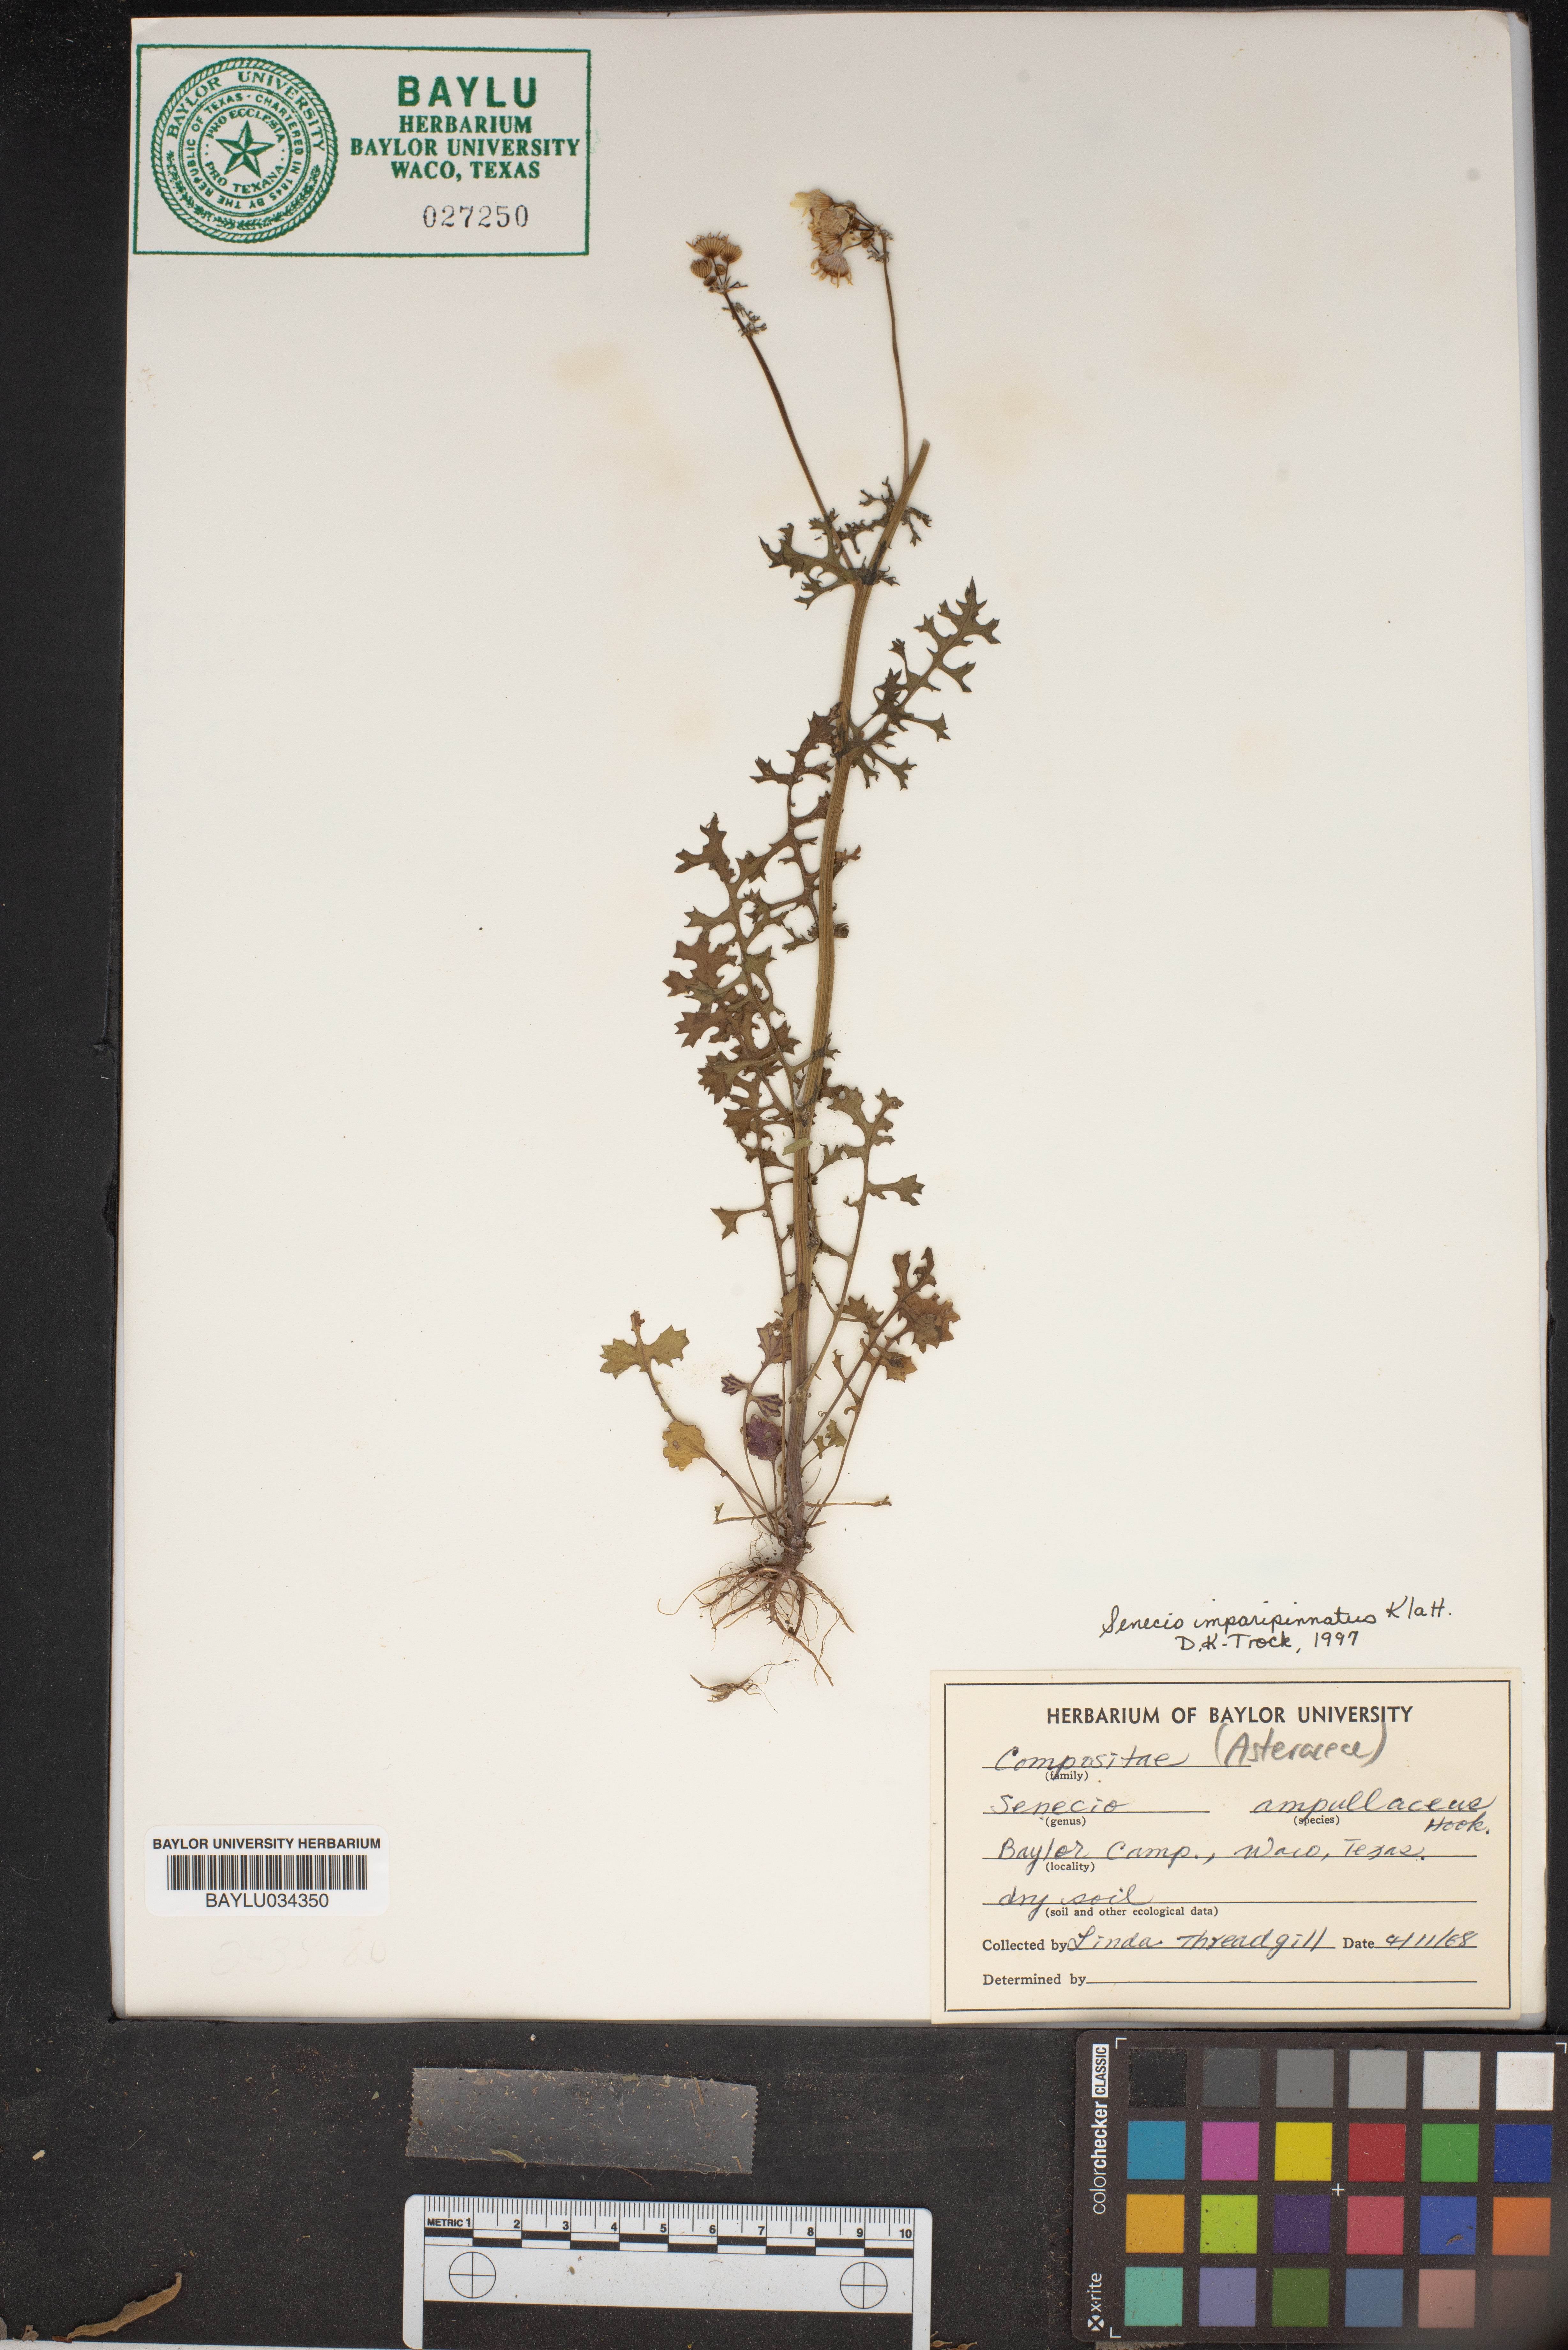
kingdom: Plantae
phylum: Tracheophyta
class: Magnoliopsida
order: Asterales
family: Asteraceae
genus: Senecio
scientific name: Senecio ampullaceus
